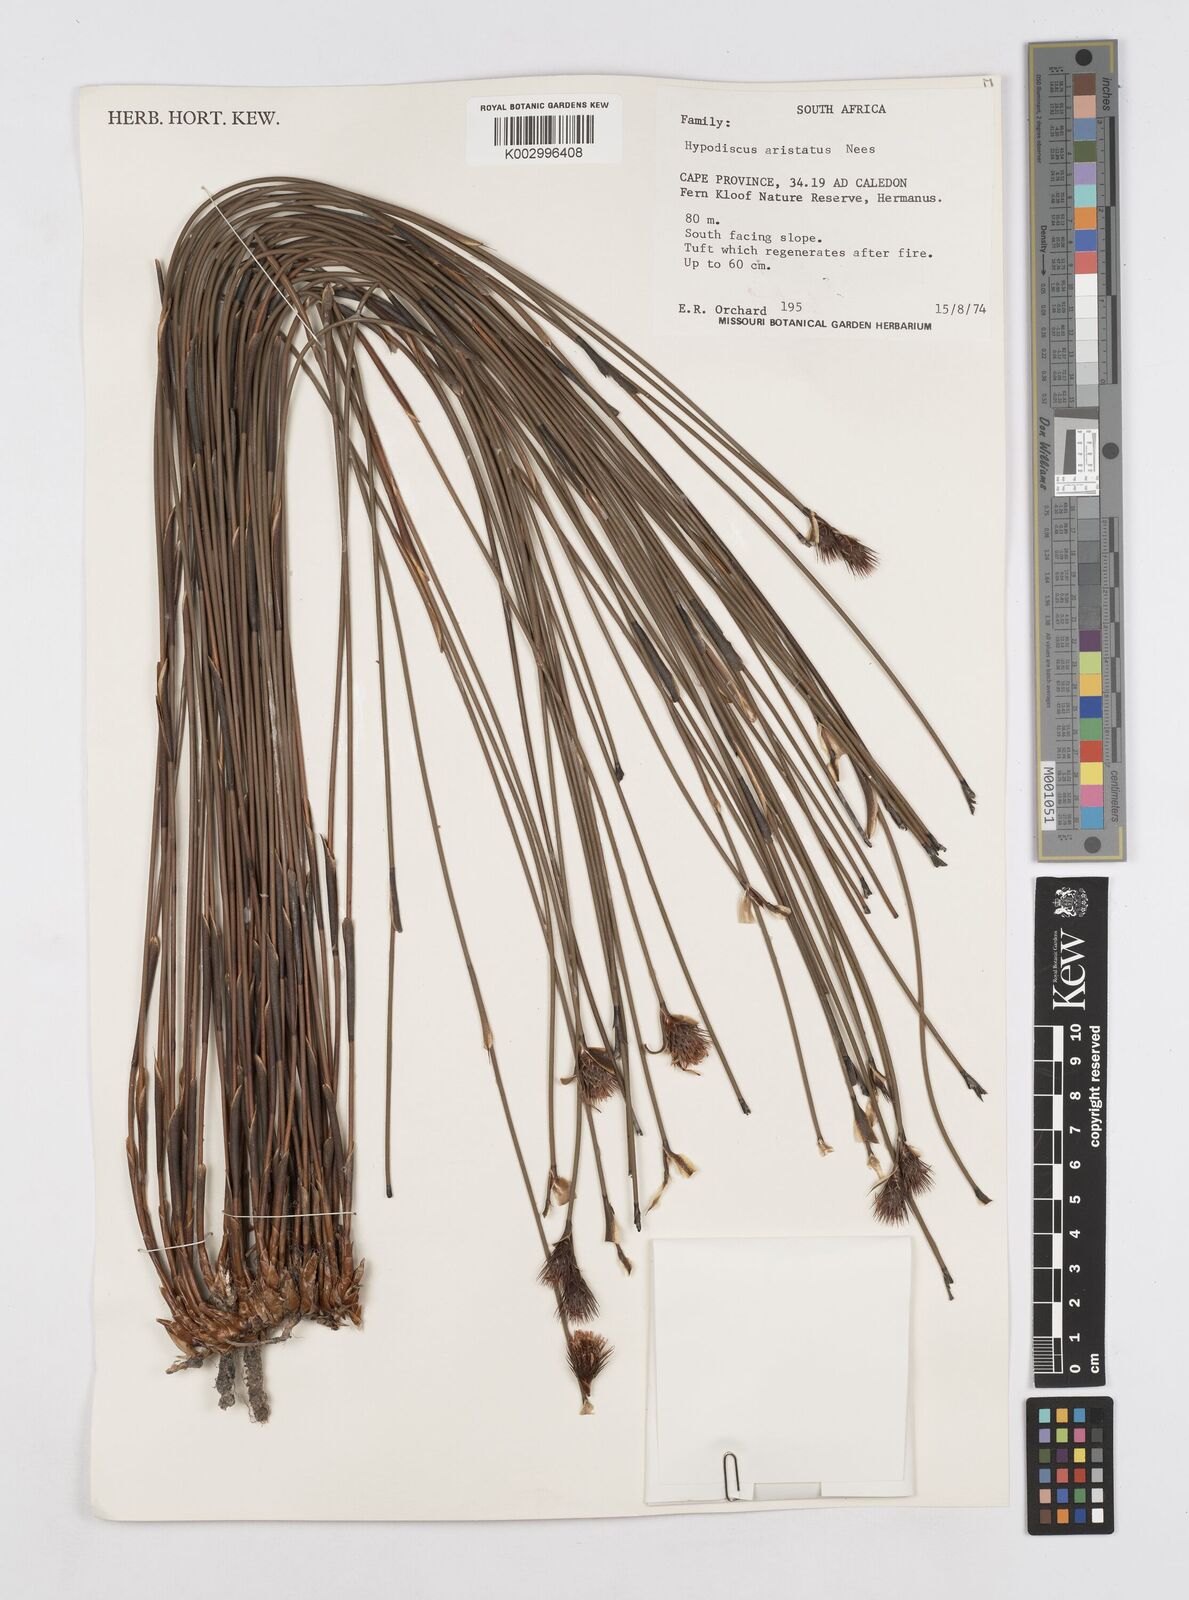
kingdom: Plantae
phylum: Tracheophyta
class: Liliopsida
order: Poales
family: Restionaceae
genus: Hypodiscus
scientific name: Hypodiscus aristatus
